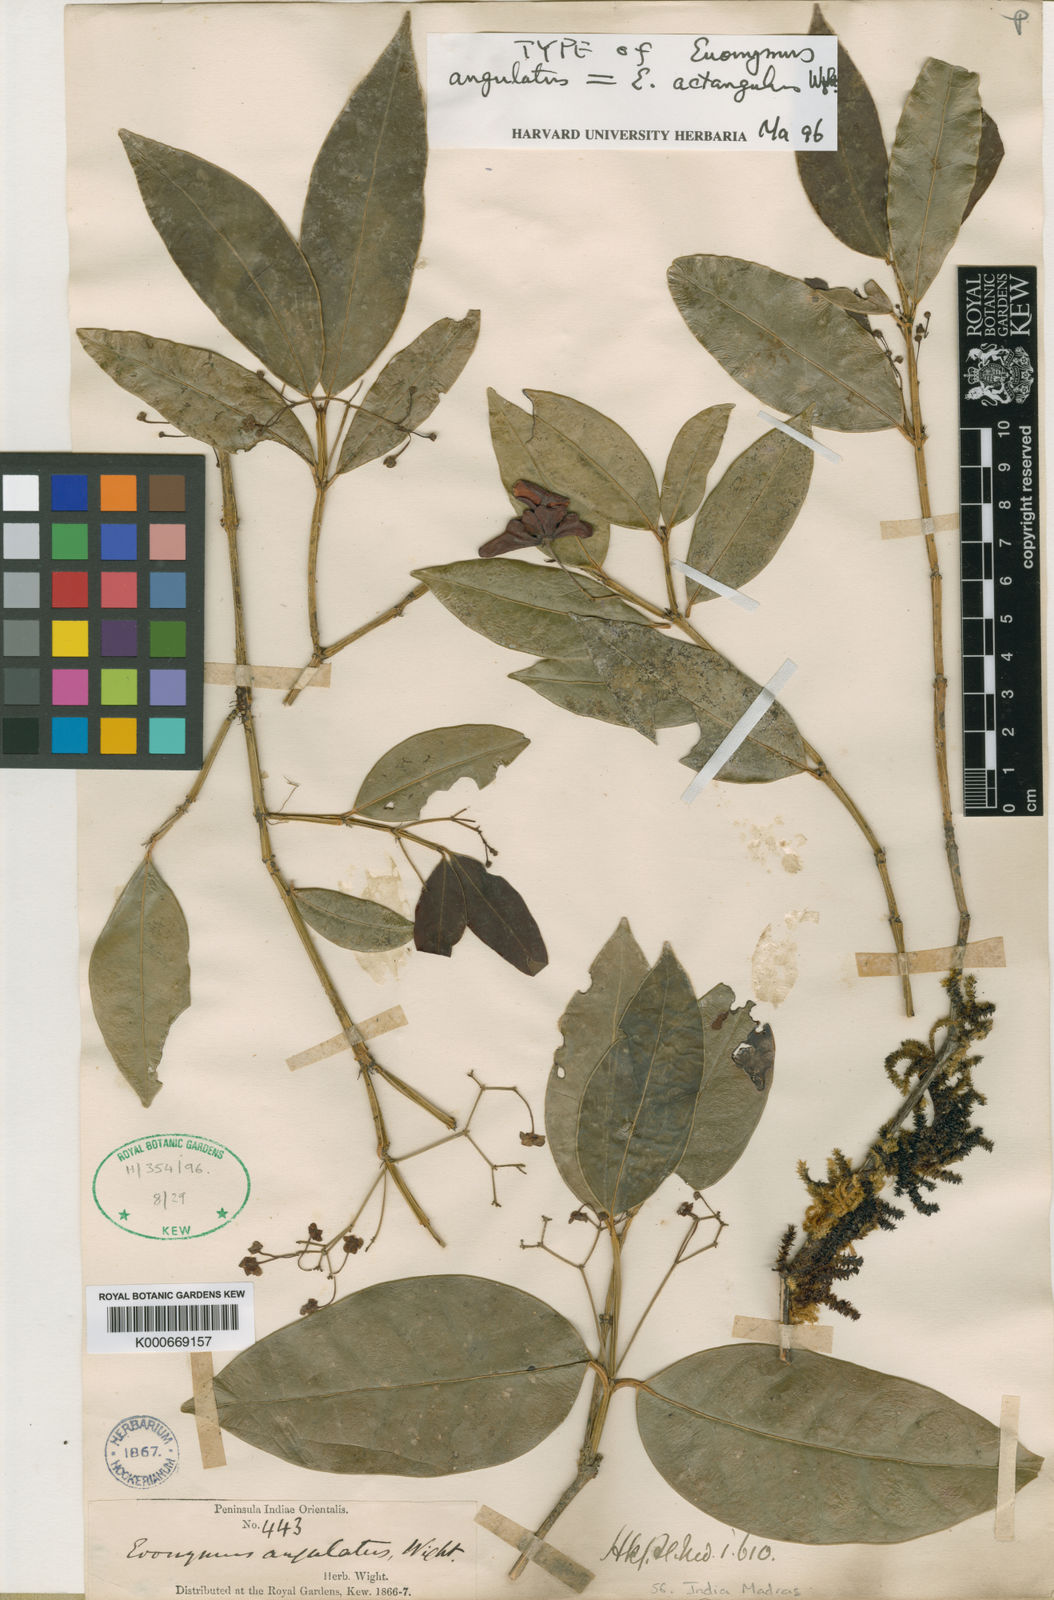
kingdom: Plantae
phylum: Tracheophyta
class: Magnoliopsida
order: Celastrales
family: Celastraceae
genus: Euonymus
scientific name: Euonymus angulatus
